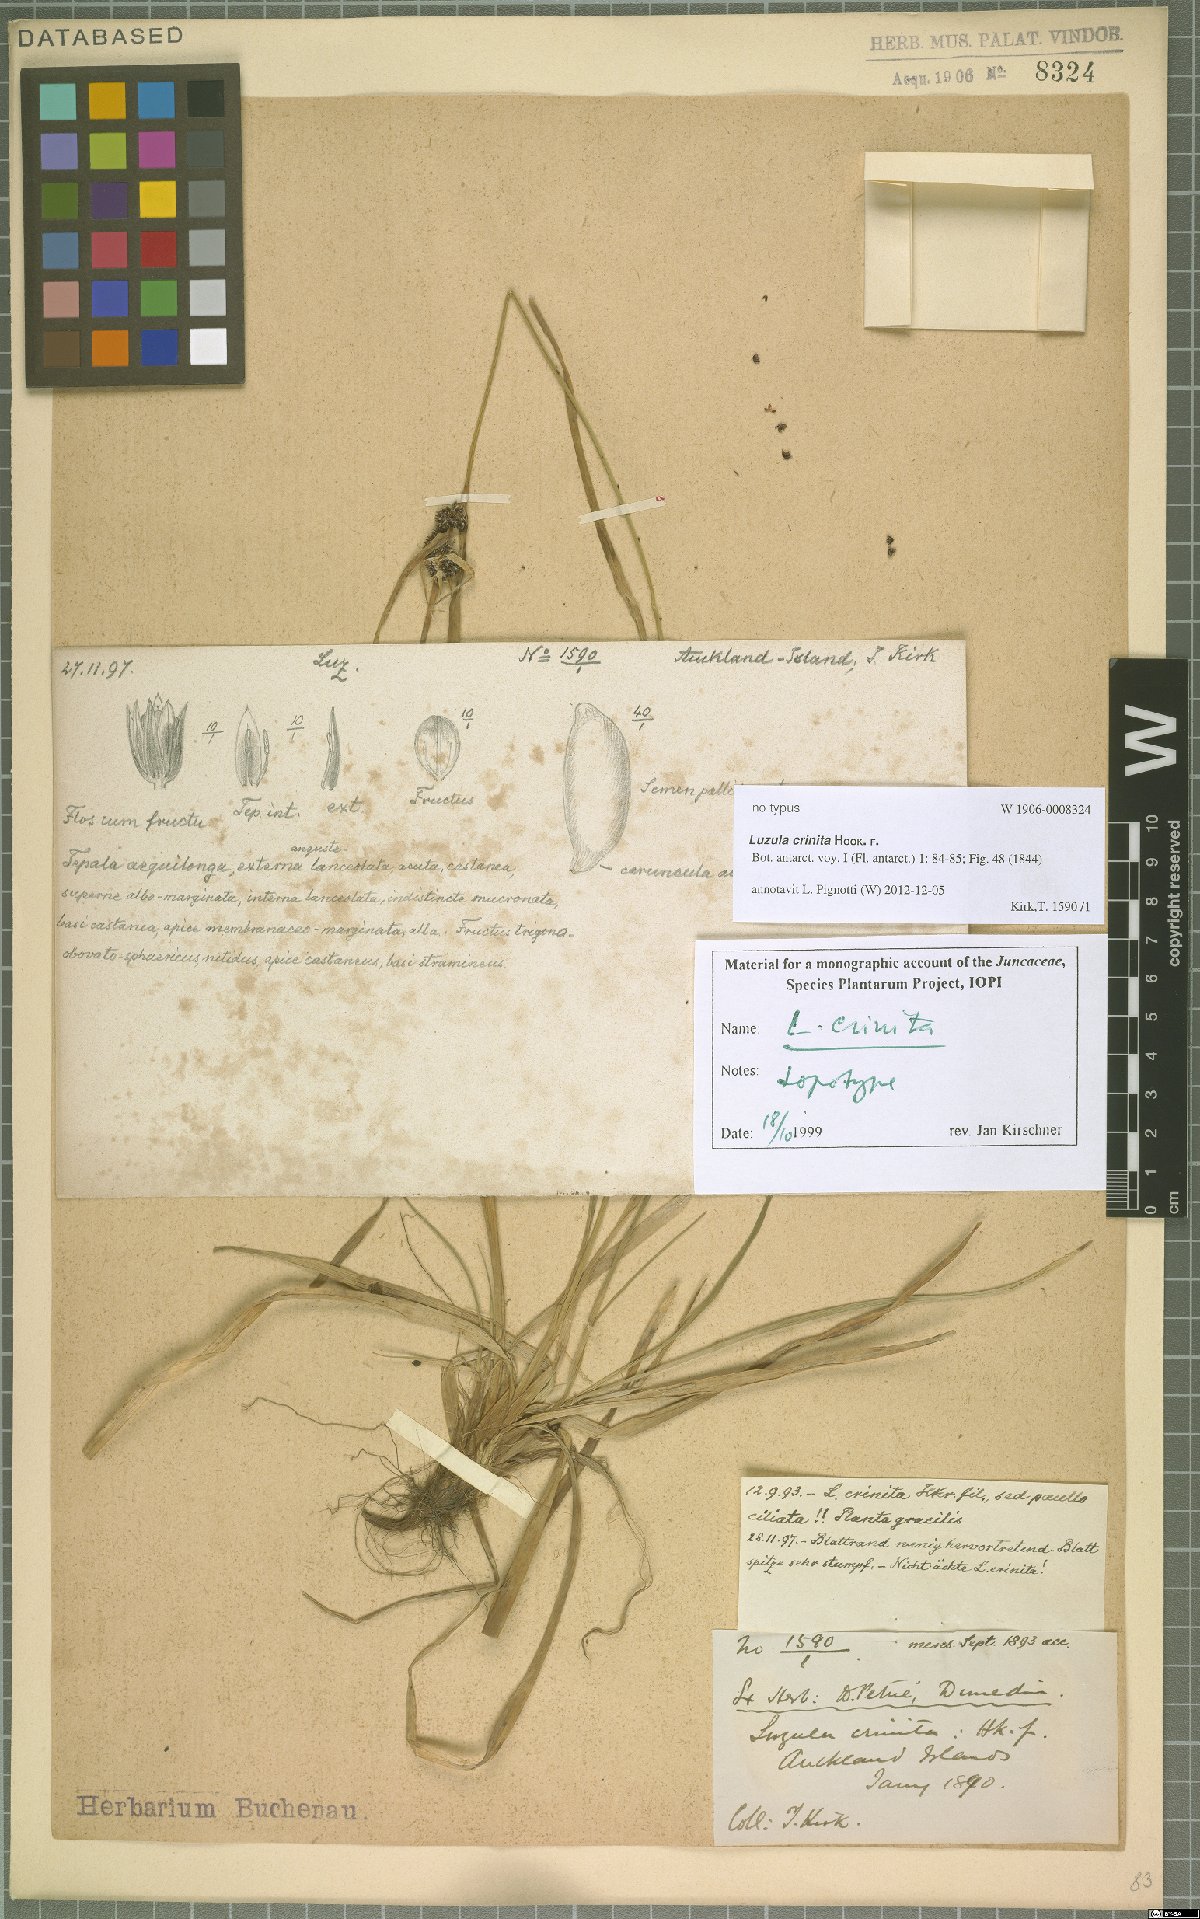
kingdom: Plantae
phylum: Tracheophyta
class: Liliopsida
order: Poales
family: Juncaceae
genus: Luzula
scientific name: Luzula crinita
